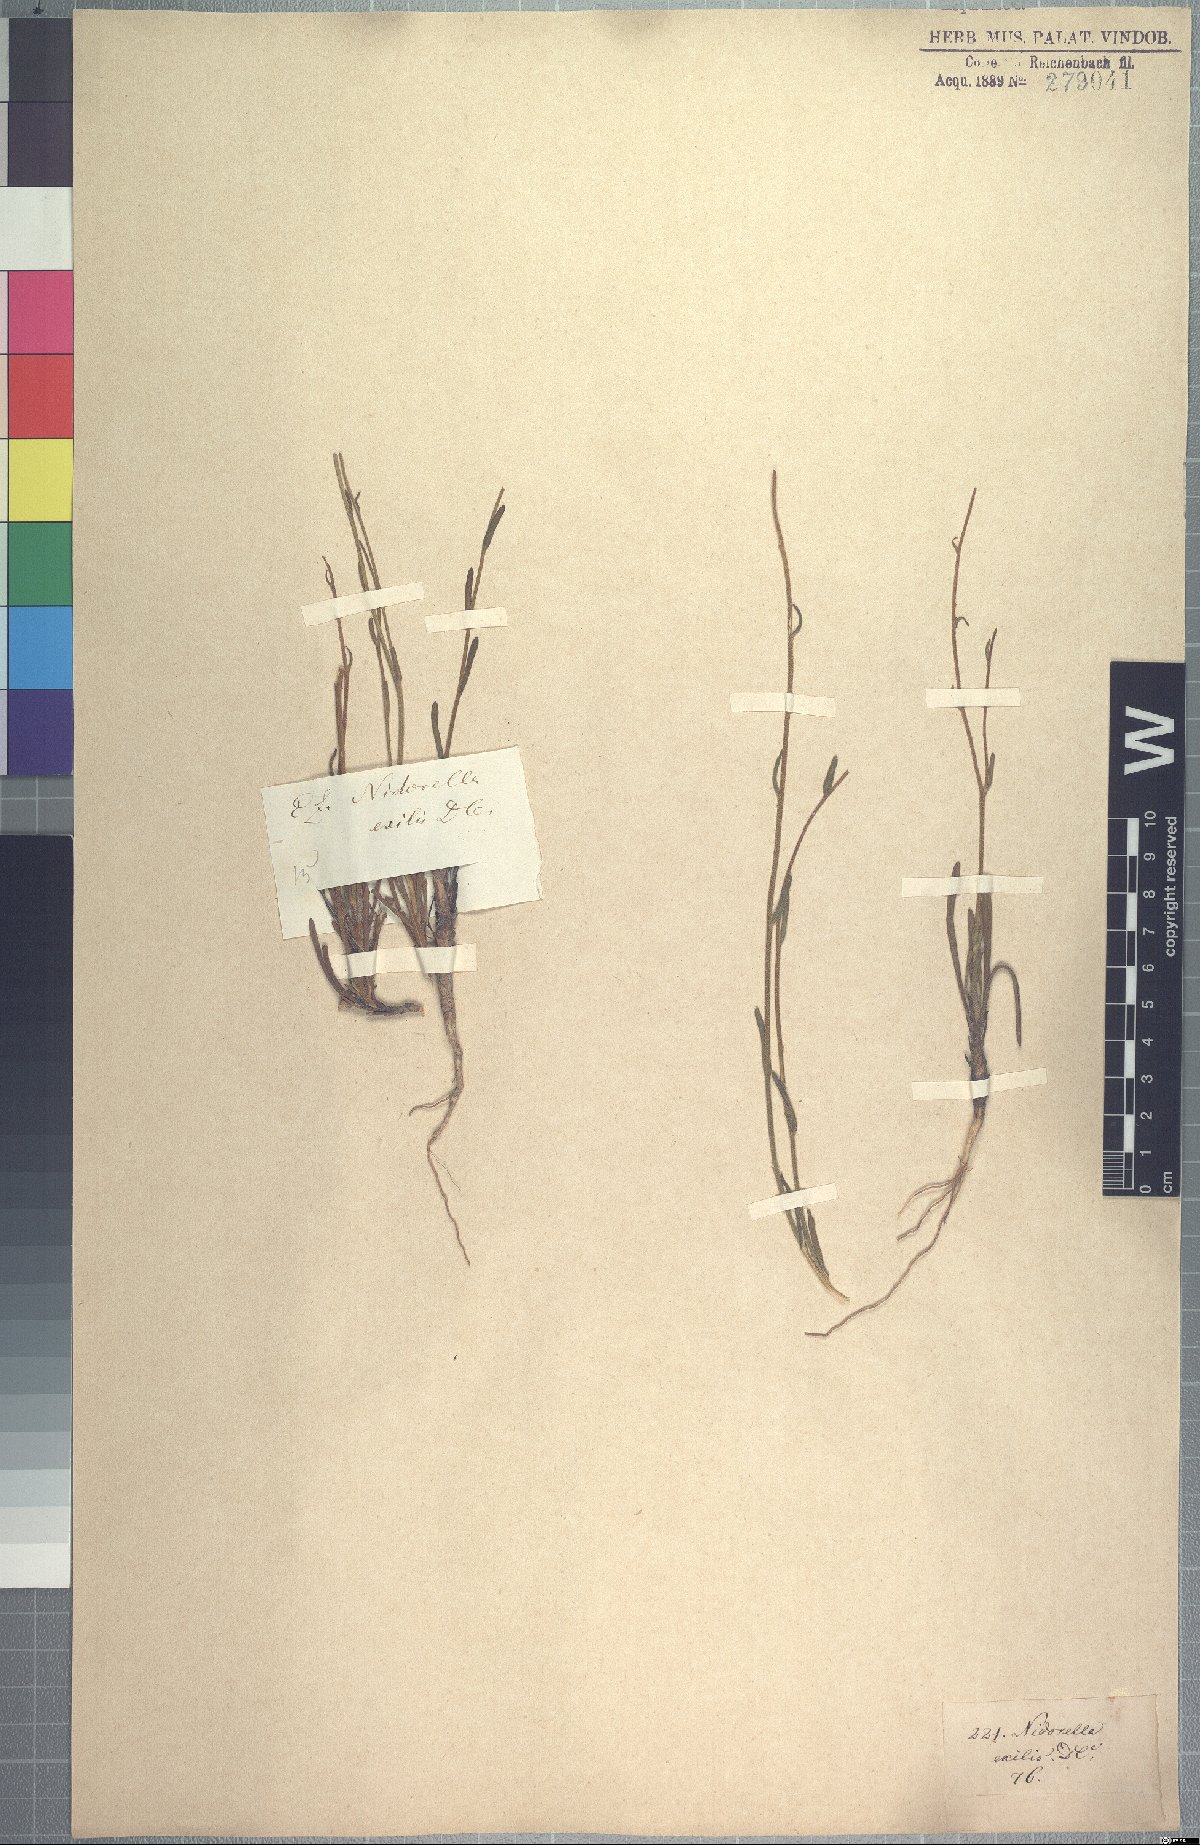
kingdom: Plantae
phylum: Tracheophyta
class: Magnoliopsida
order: Asterales
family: Asteraceae
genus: Nidorella
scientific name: Nidorella exilis
